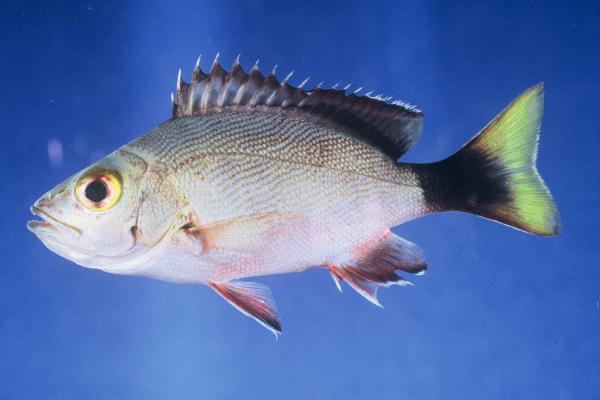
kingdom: Animalia
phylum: Chordata
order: Perciformes
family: Lutjanidae
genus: Lutjanus
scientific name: Lutjanus gibbus
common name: Humpback snapper
